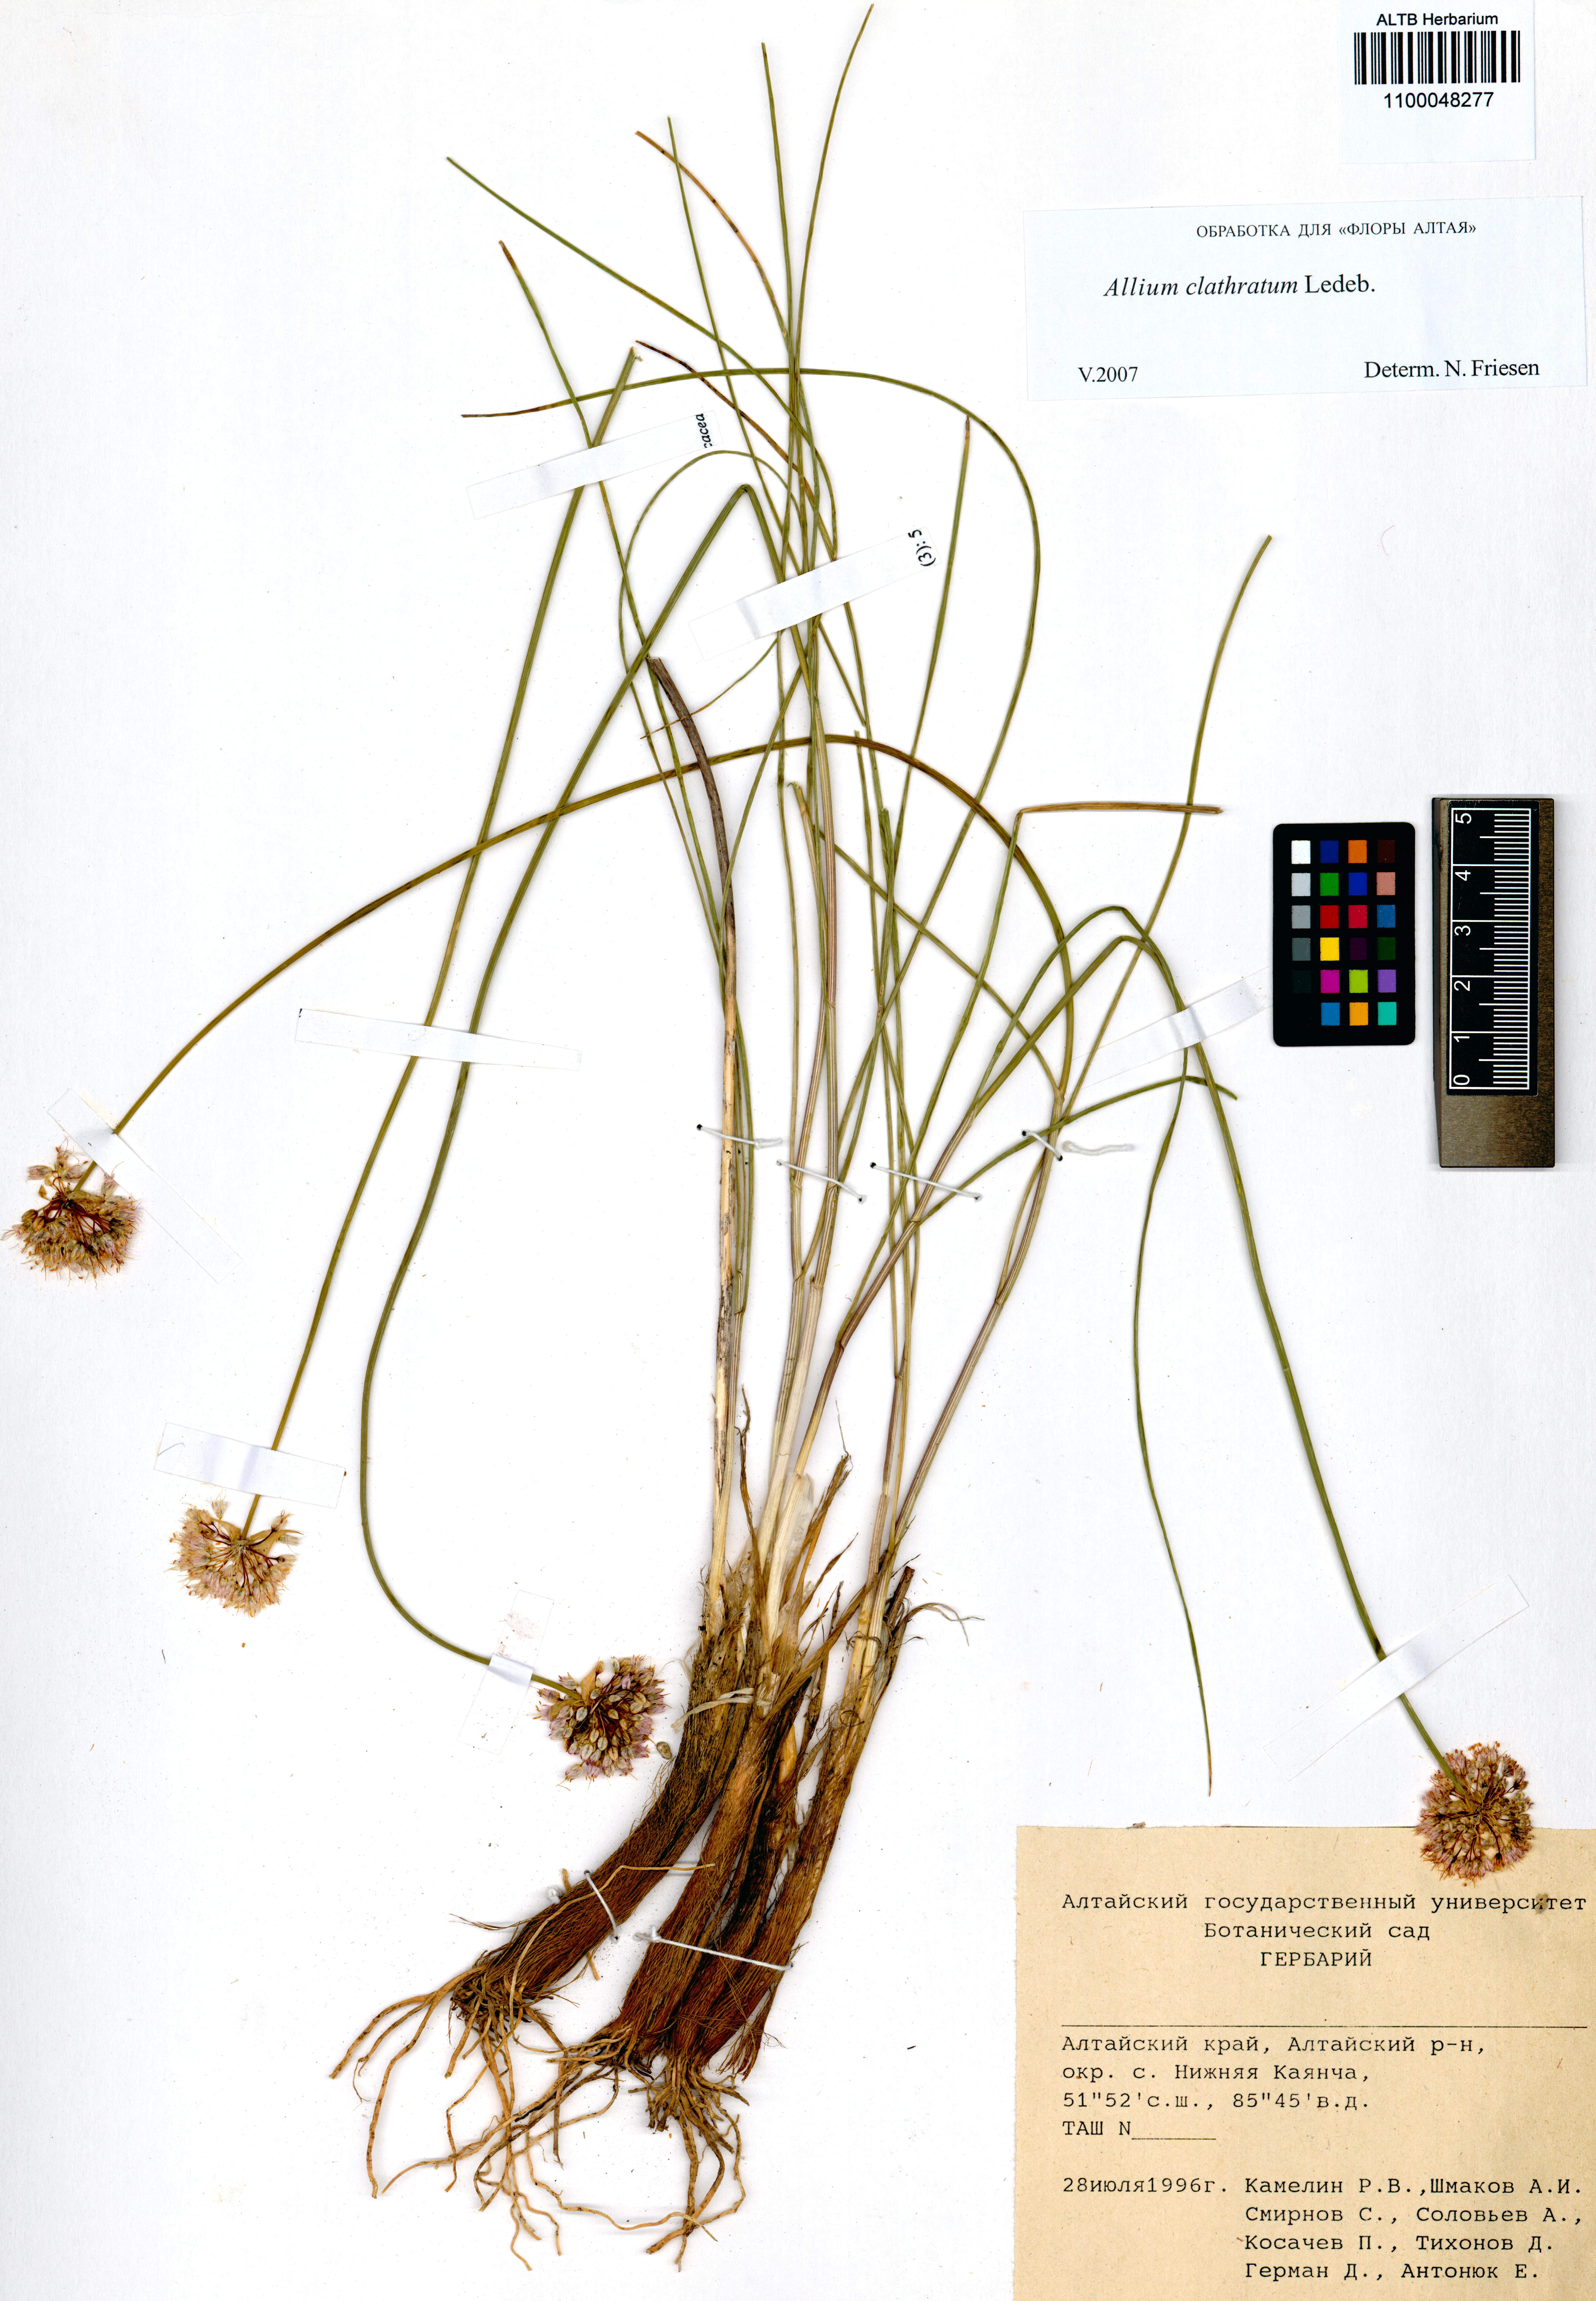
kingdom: Plantae
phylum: Tracheophyta
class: Liliopsida
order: Asparagales
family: Amaryllidaceae
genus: Allium
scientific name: Allium clathratum
